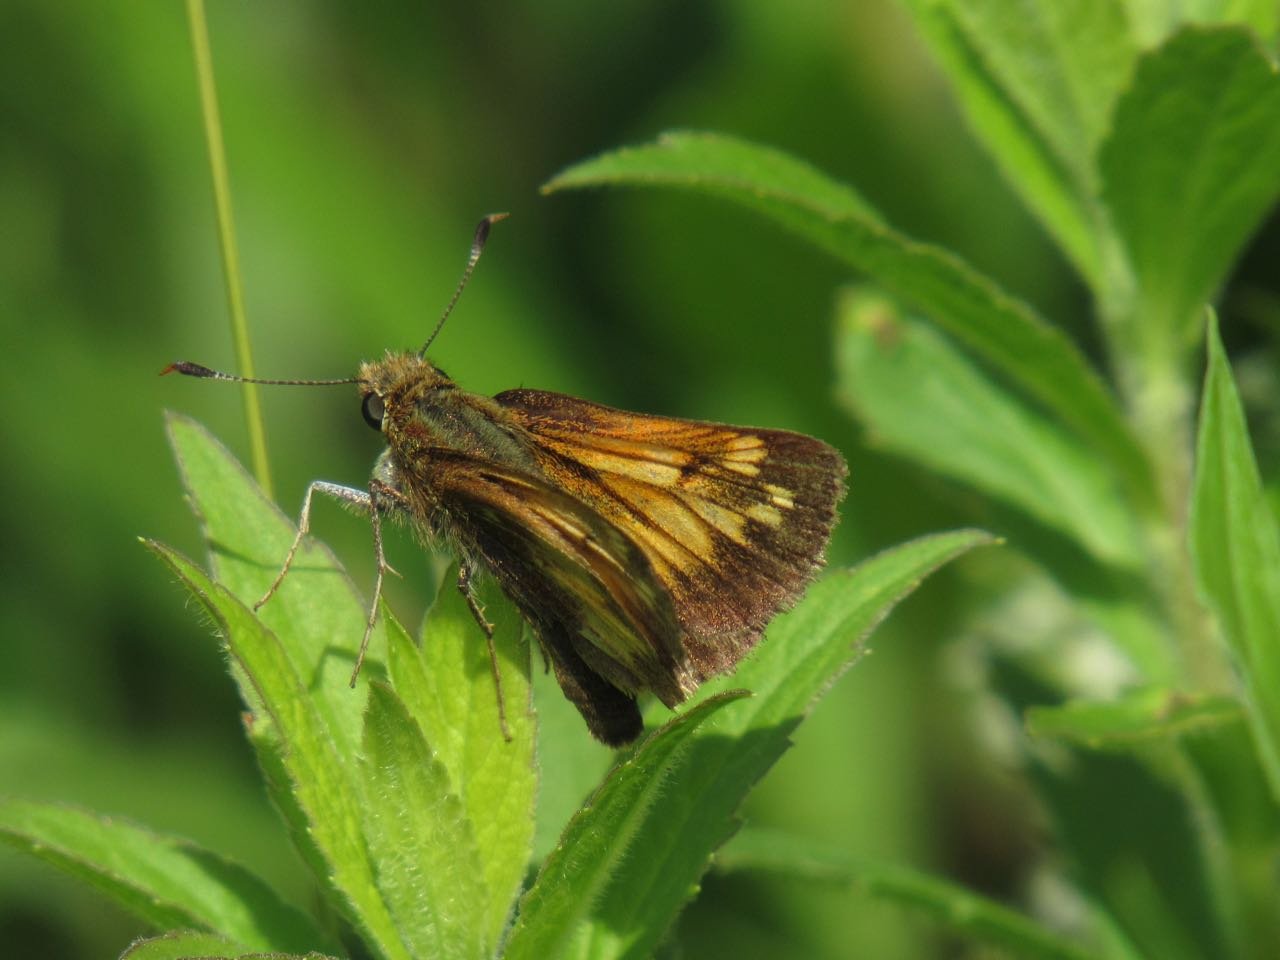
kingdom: Animalia
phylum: Arthropoda
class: Insecta
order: Lepidoptera
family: Hesperiidae
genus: Lon
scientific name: Lon hobomok
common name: Hobomok Skipper
